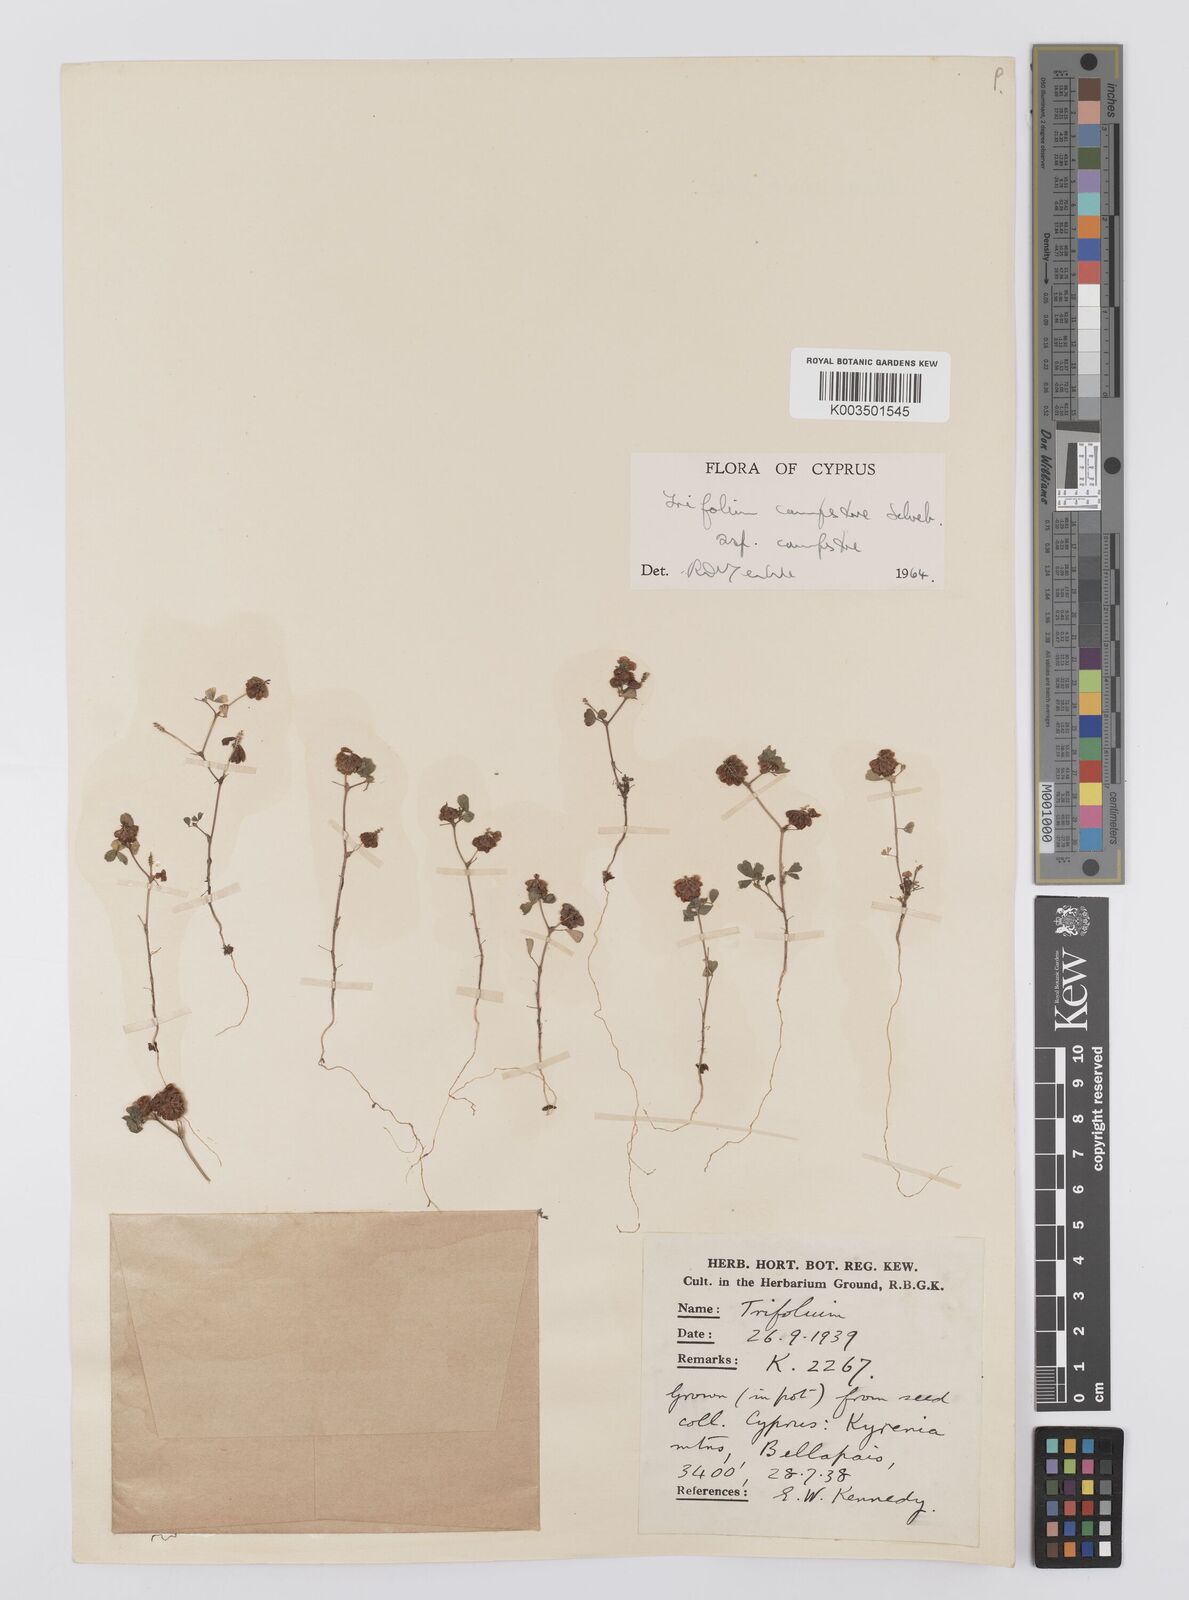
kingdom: Plantae
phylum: Tracheophyta
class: Magnoliopsida
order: Fabales
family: Fabaceae
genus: Trifolium
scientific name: Trifolium campestre
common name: Field clover
